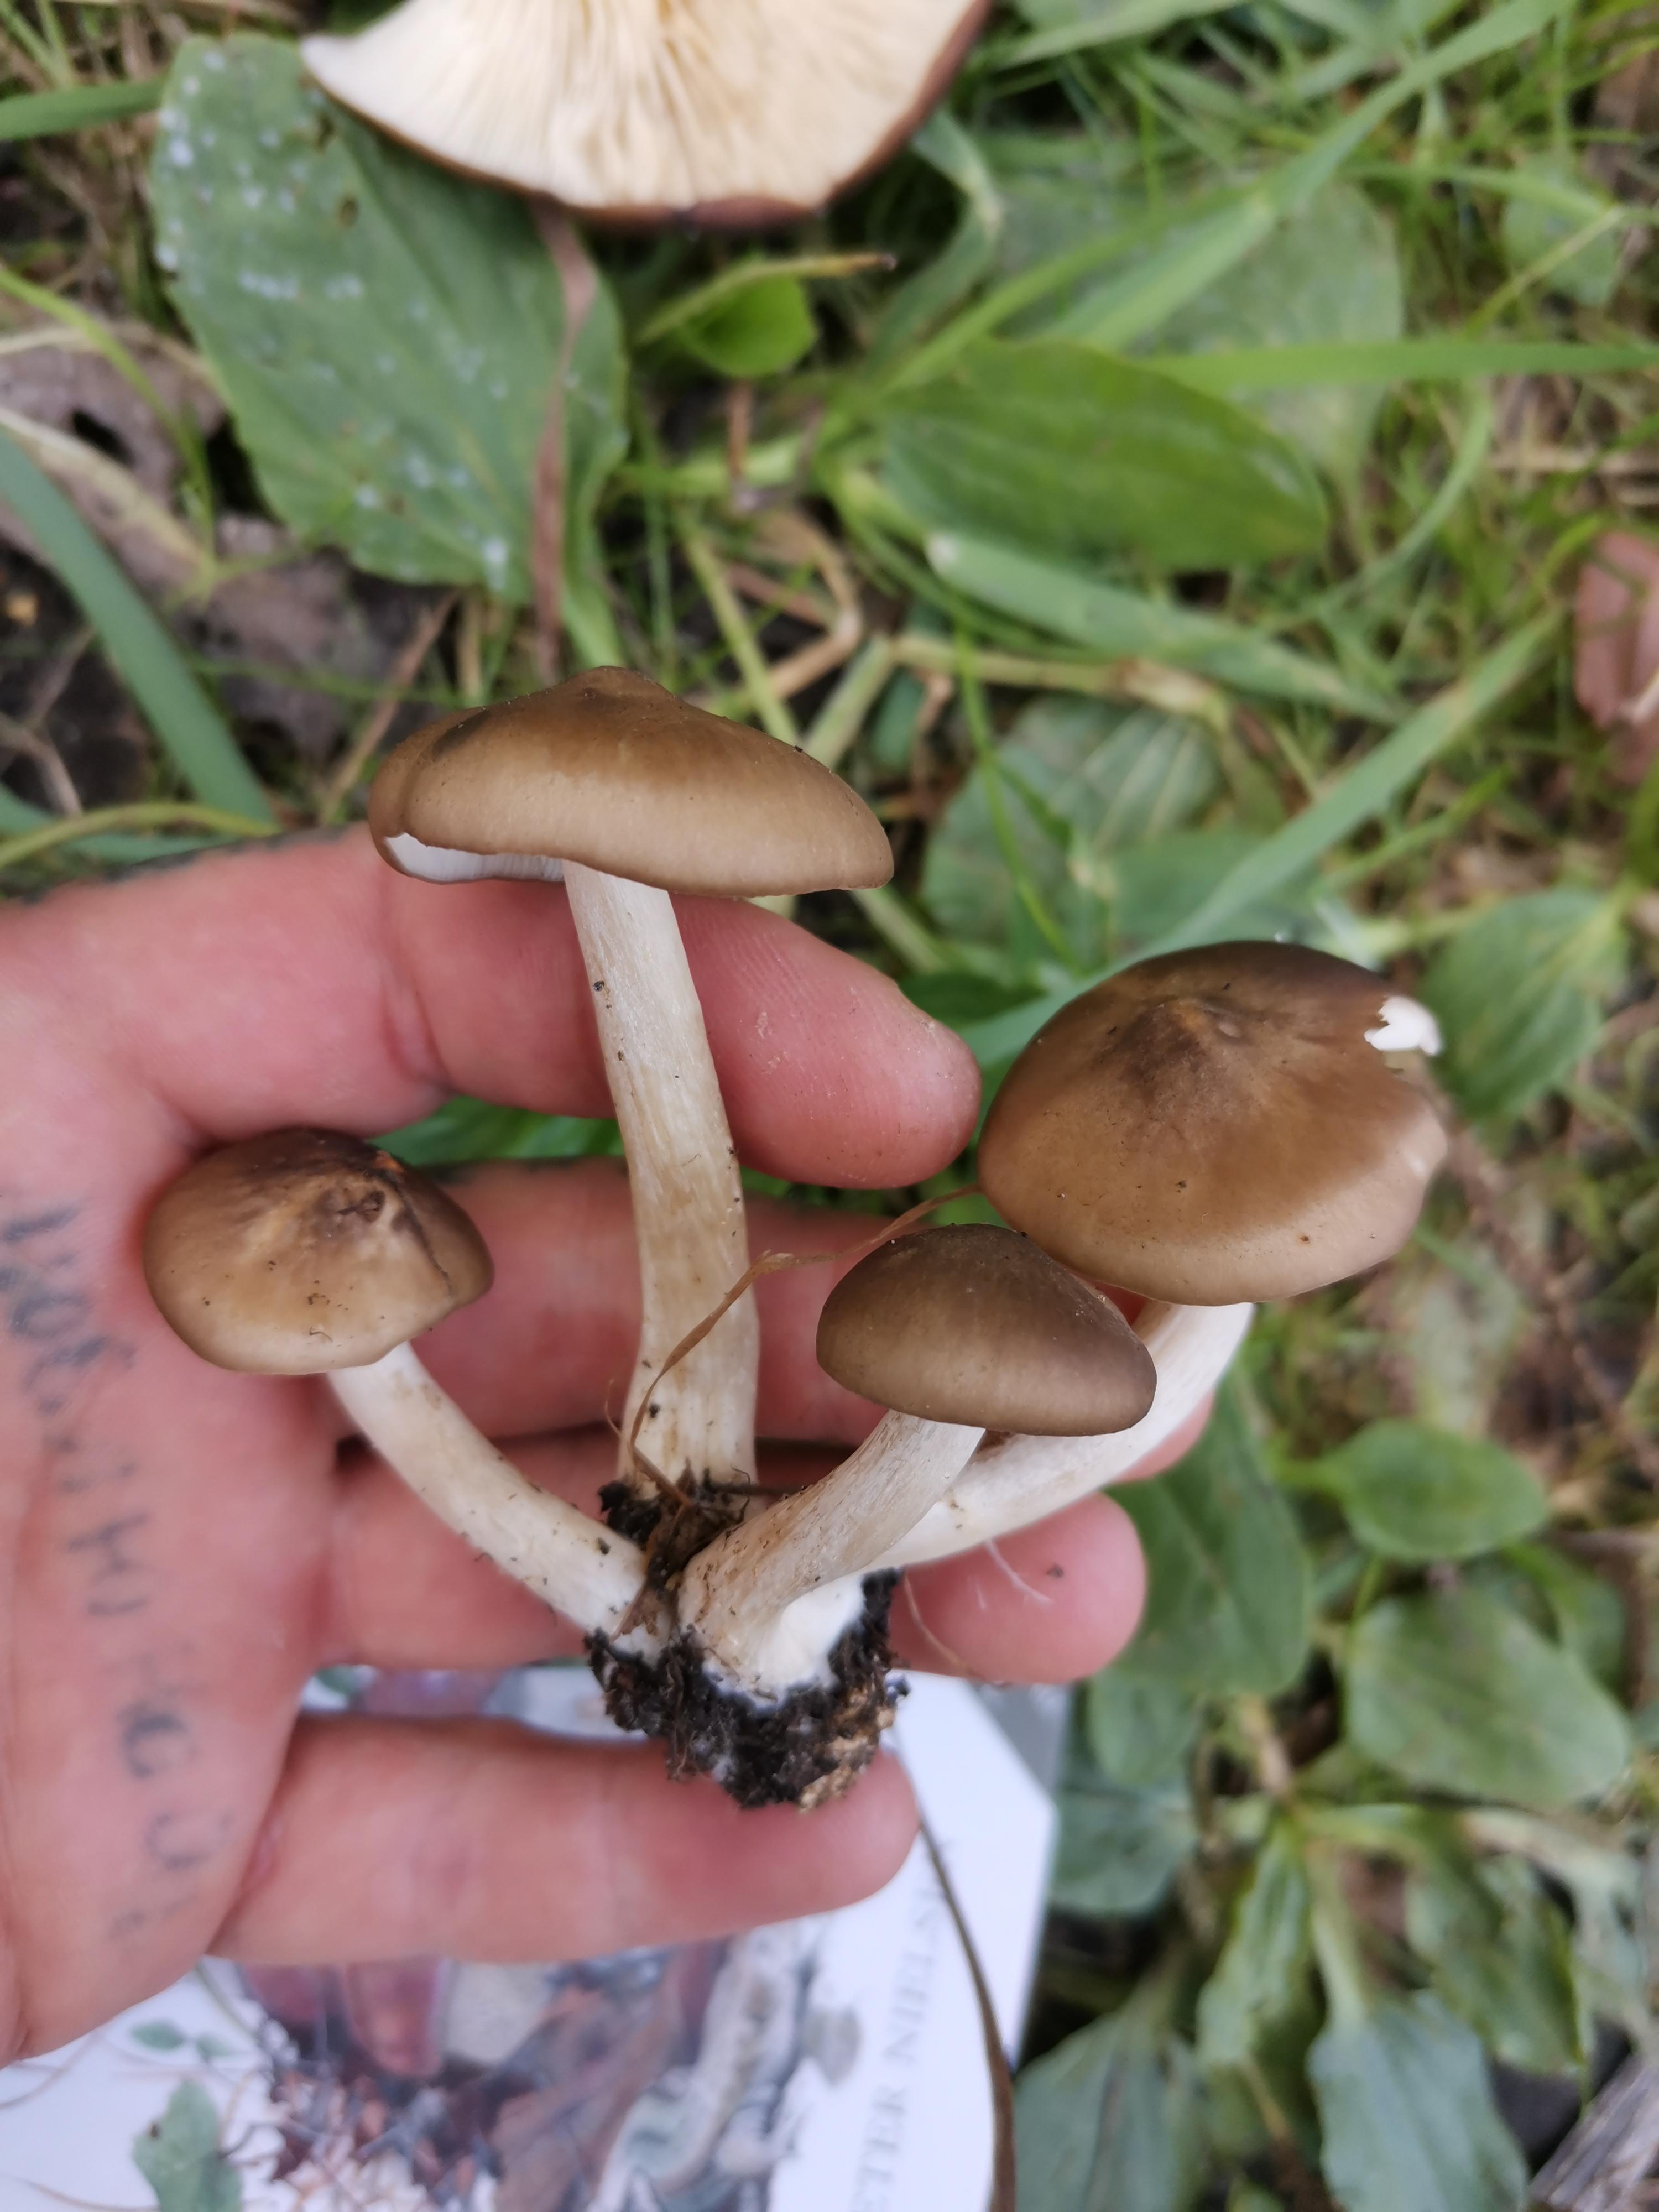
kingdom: Fungi
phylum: Basidiomycota
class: Agaricomycetes
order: Agaricales
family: Lyophyllaceae
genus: Lyophyllum
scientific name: Lyophyllum
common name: gråblad
